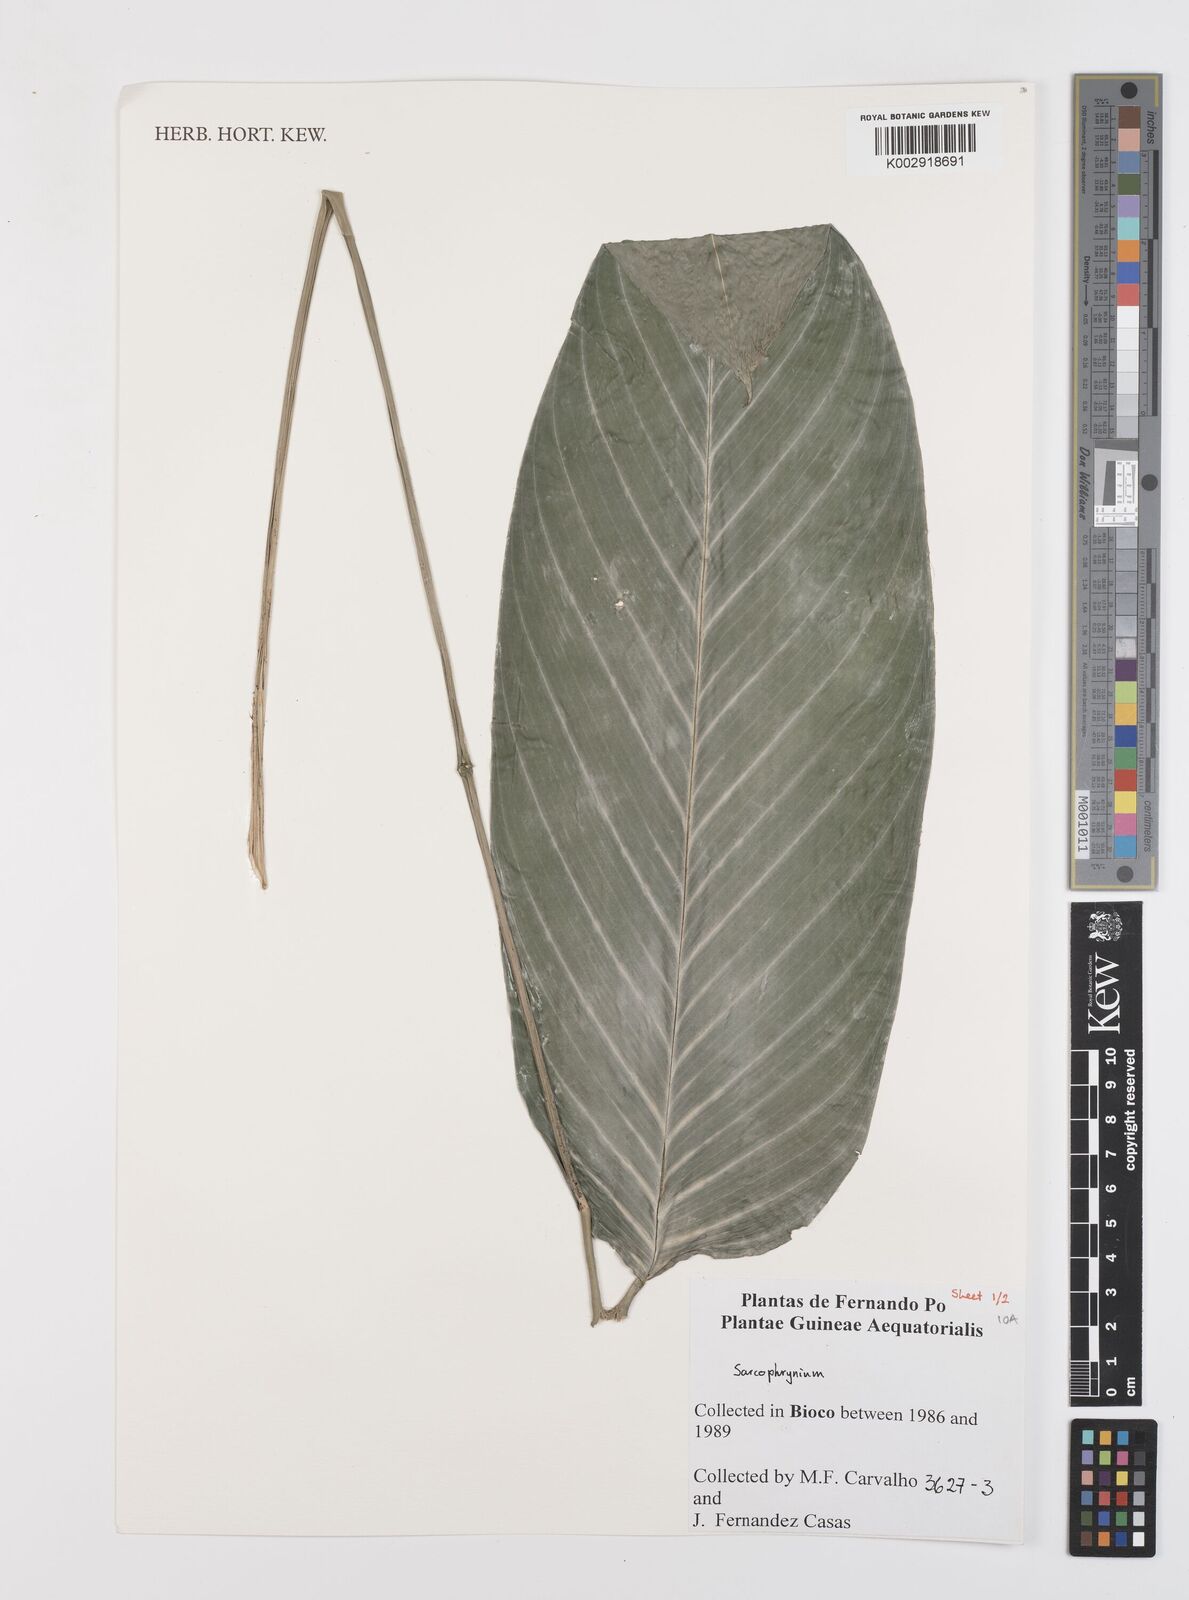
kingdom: Plantae
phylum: Tracheophyta
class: Liliopsida
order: Zingiberales
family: Marantaceae
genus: Sarcophrynium
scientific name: Sarcophrynium
